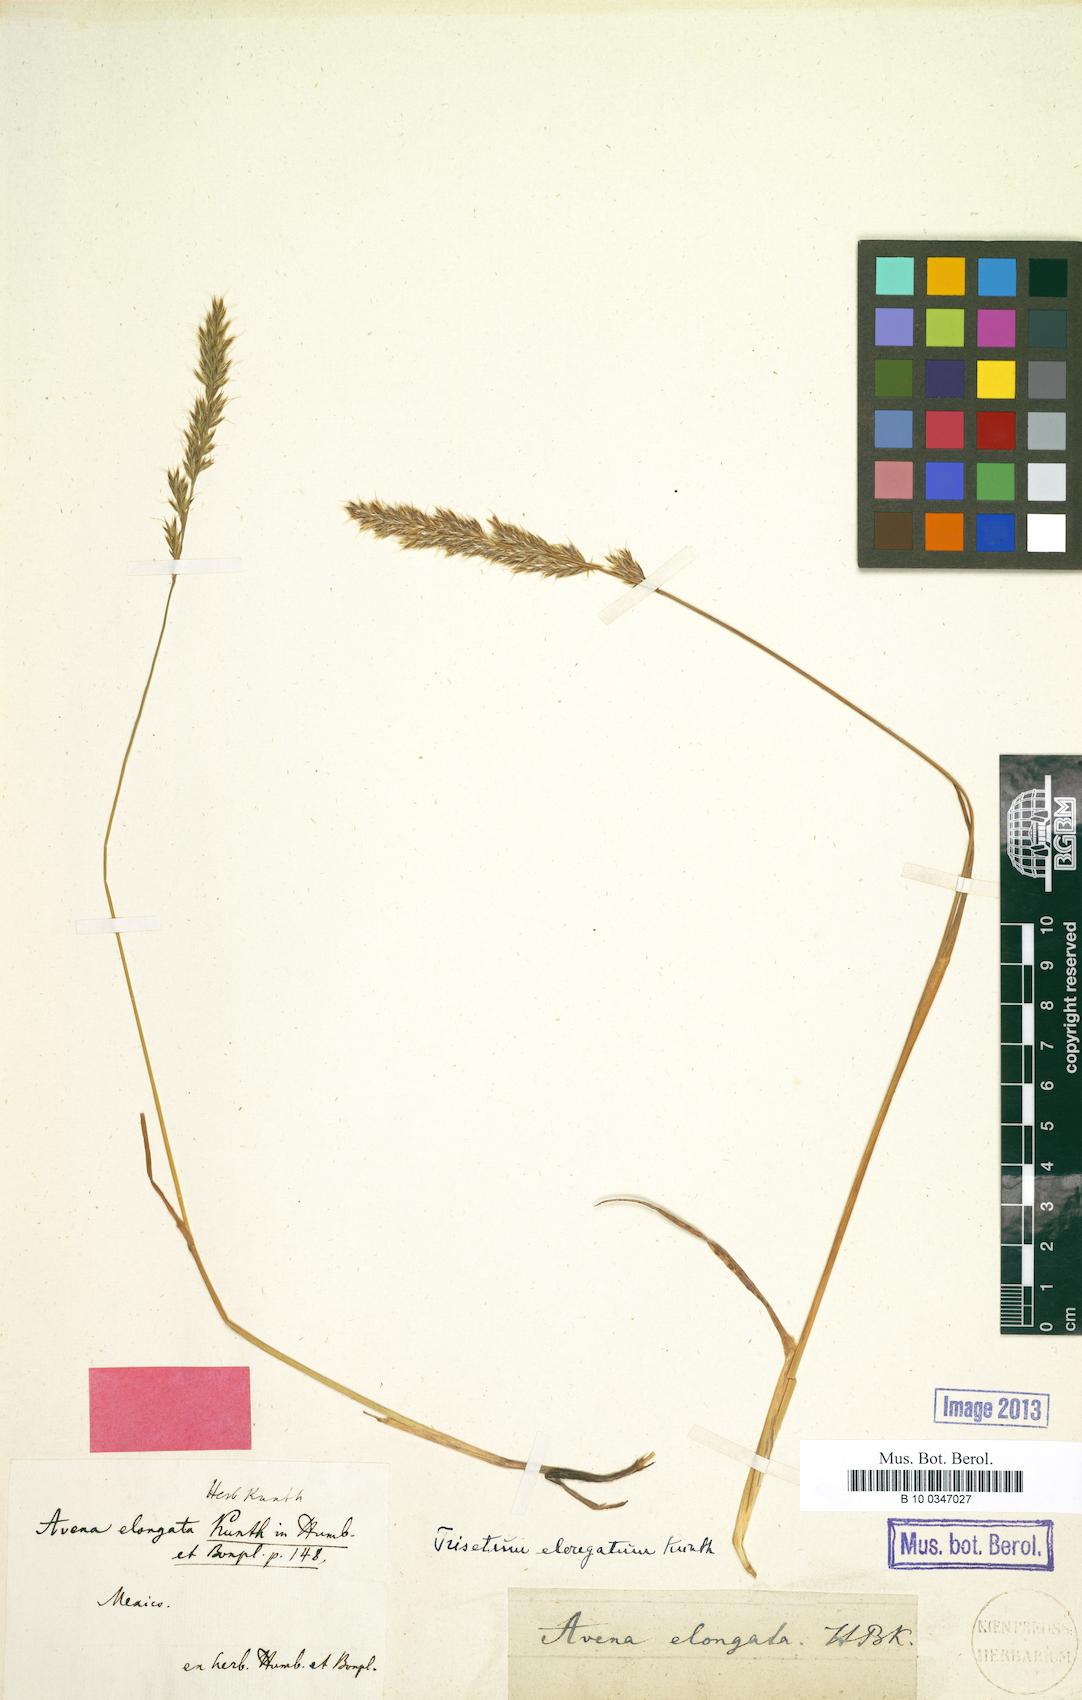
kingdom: Plantae
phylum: Tracheophyta
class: Liliopsida
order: Poales
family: Poaceae
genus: Sphenopholis
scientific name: Sphenopholis interrupta
